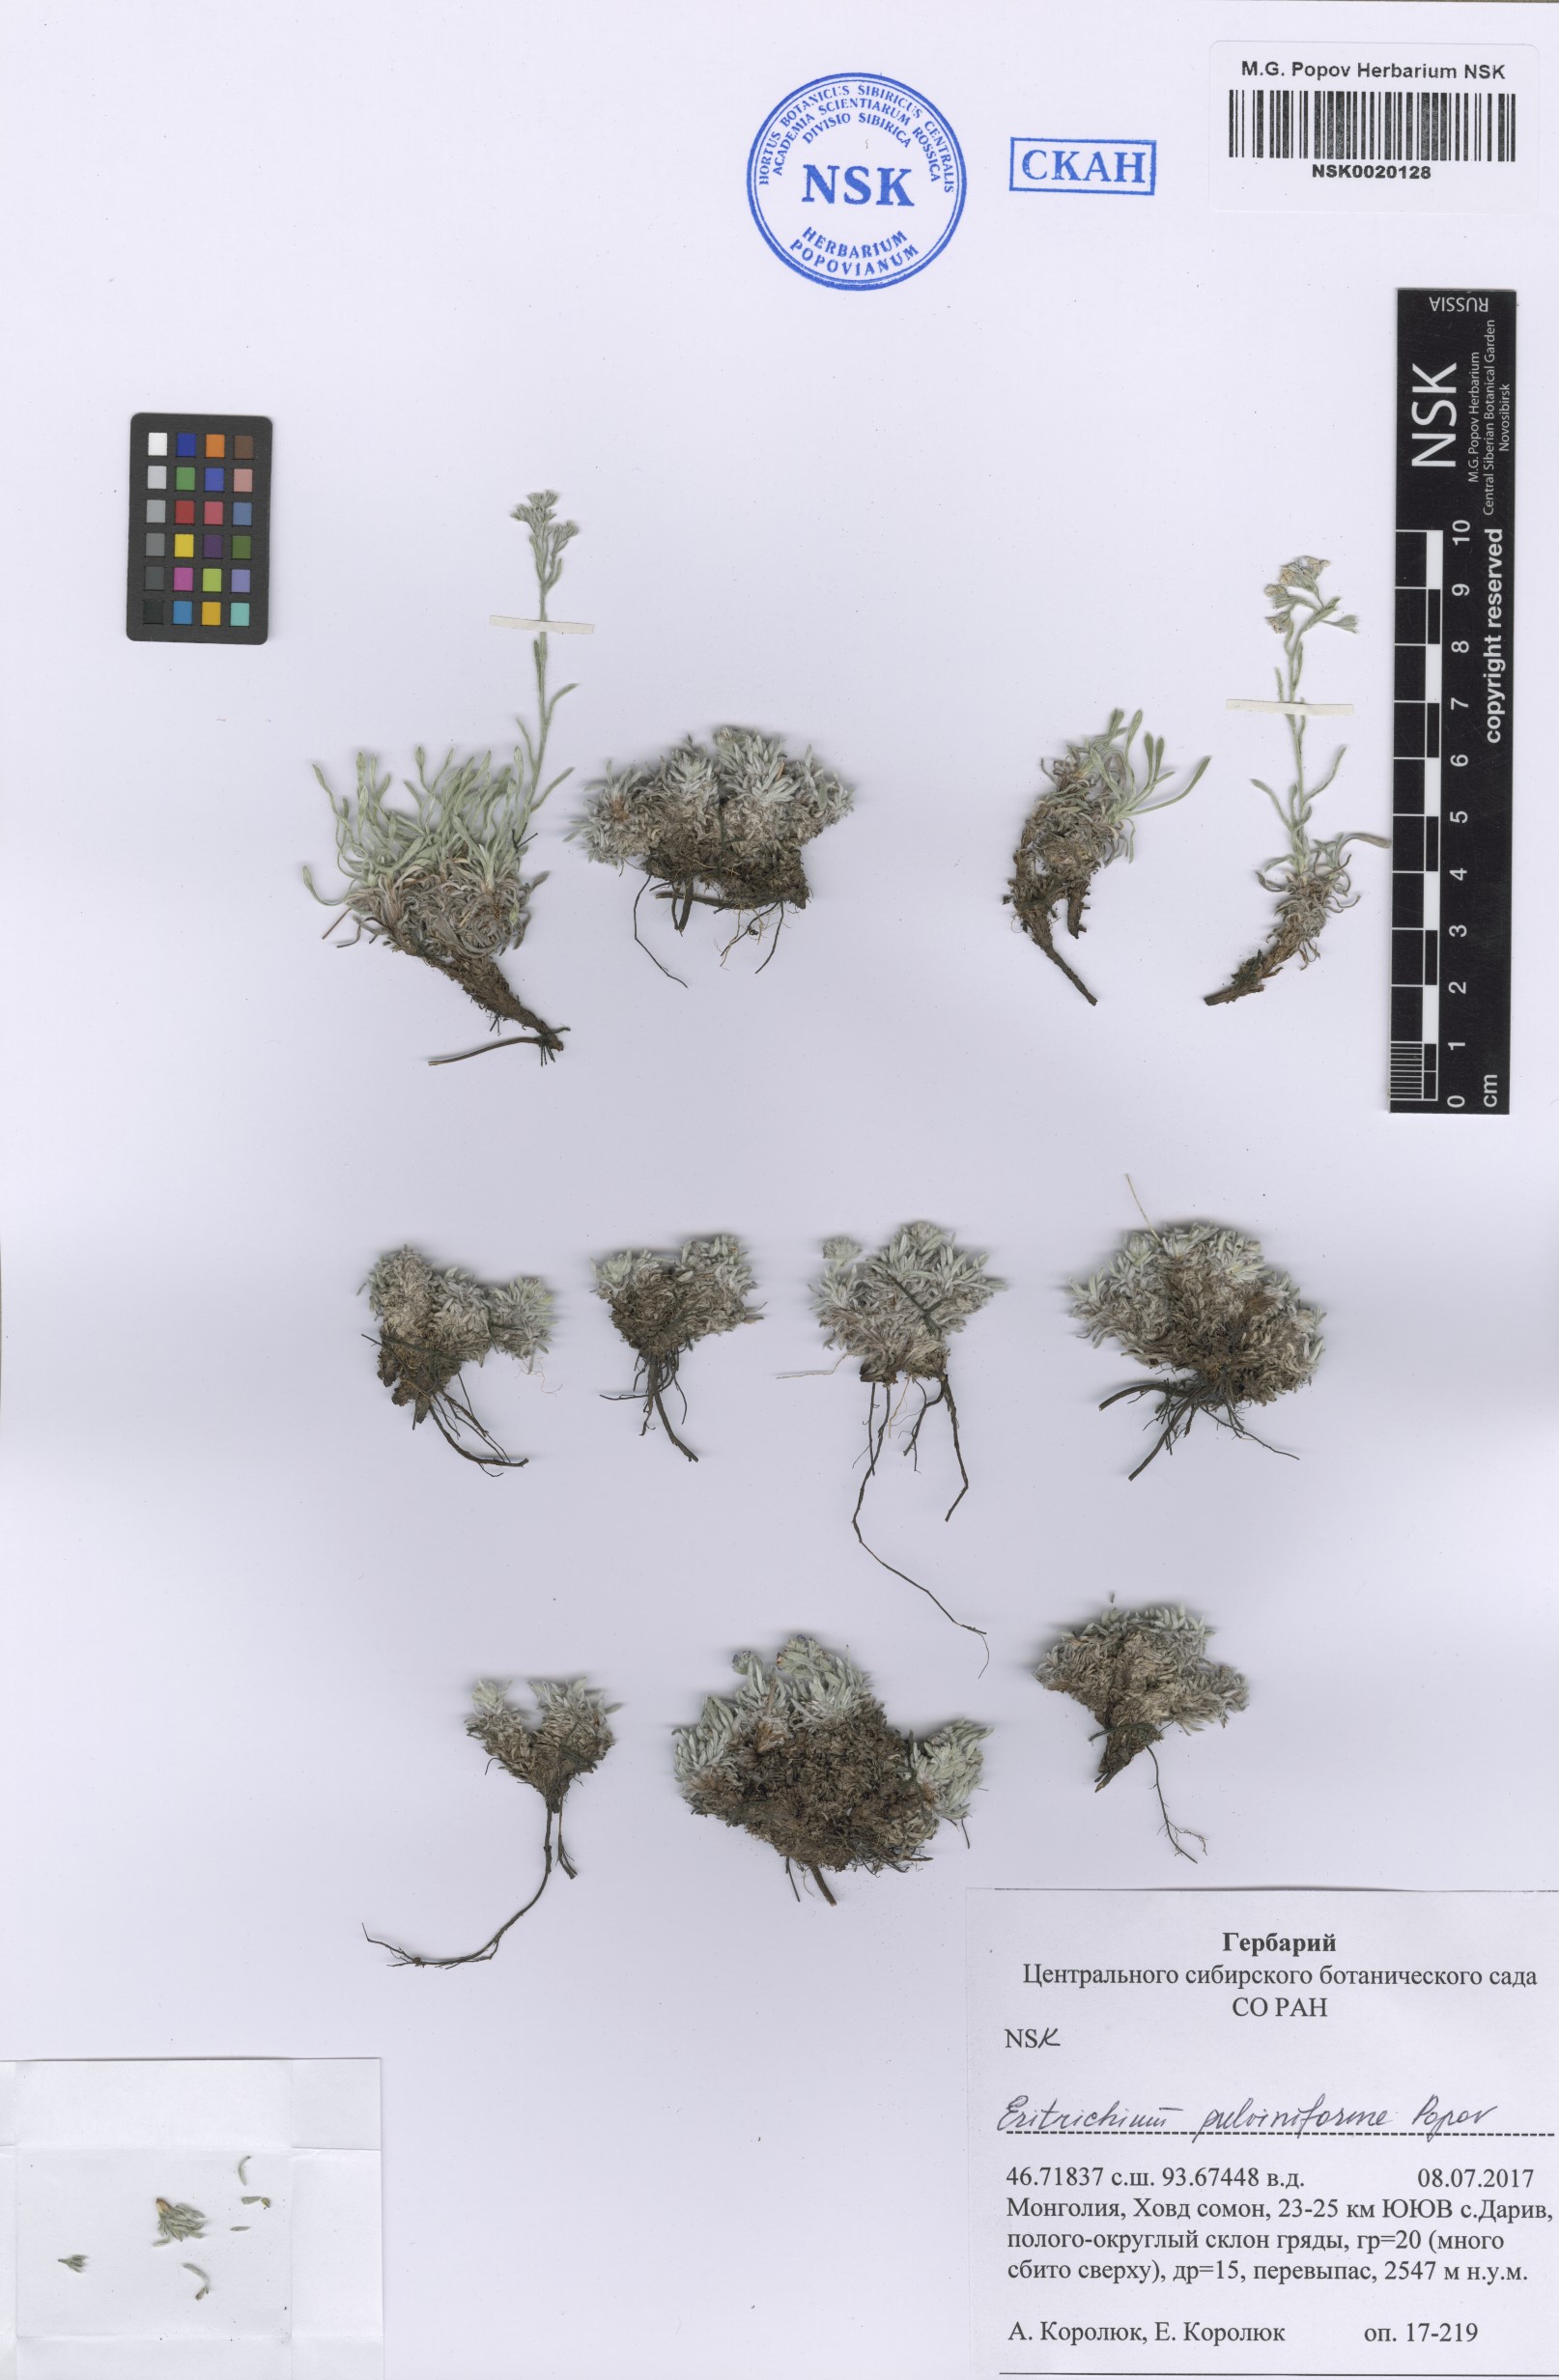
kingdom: Plantae
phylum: Tracheophyta
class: Magnoliopsida
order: Boraginales
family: Boraginaceae
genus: Eritrichium
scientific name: Eritrichium pauciflorum
